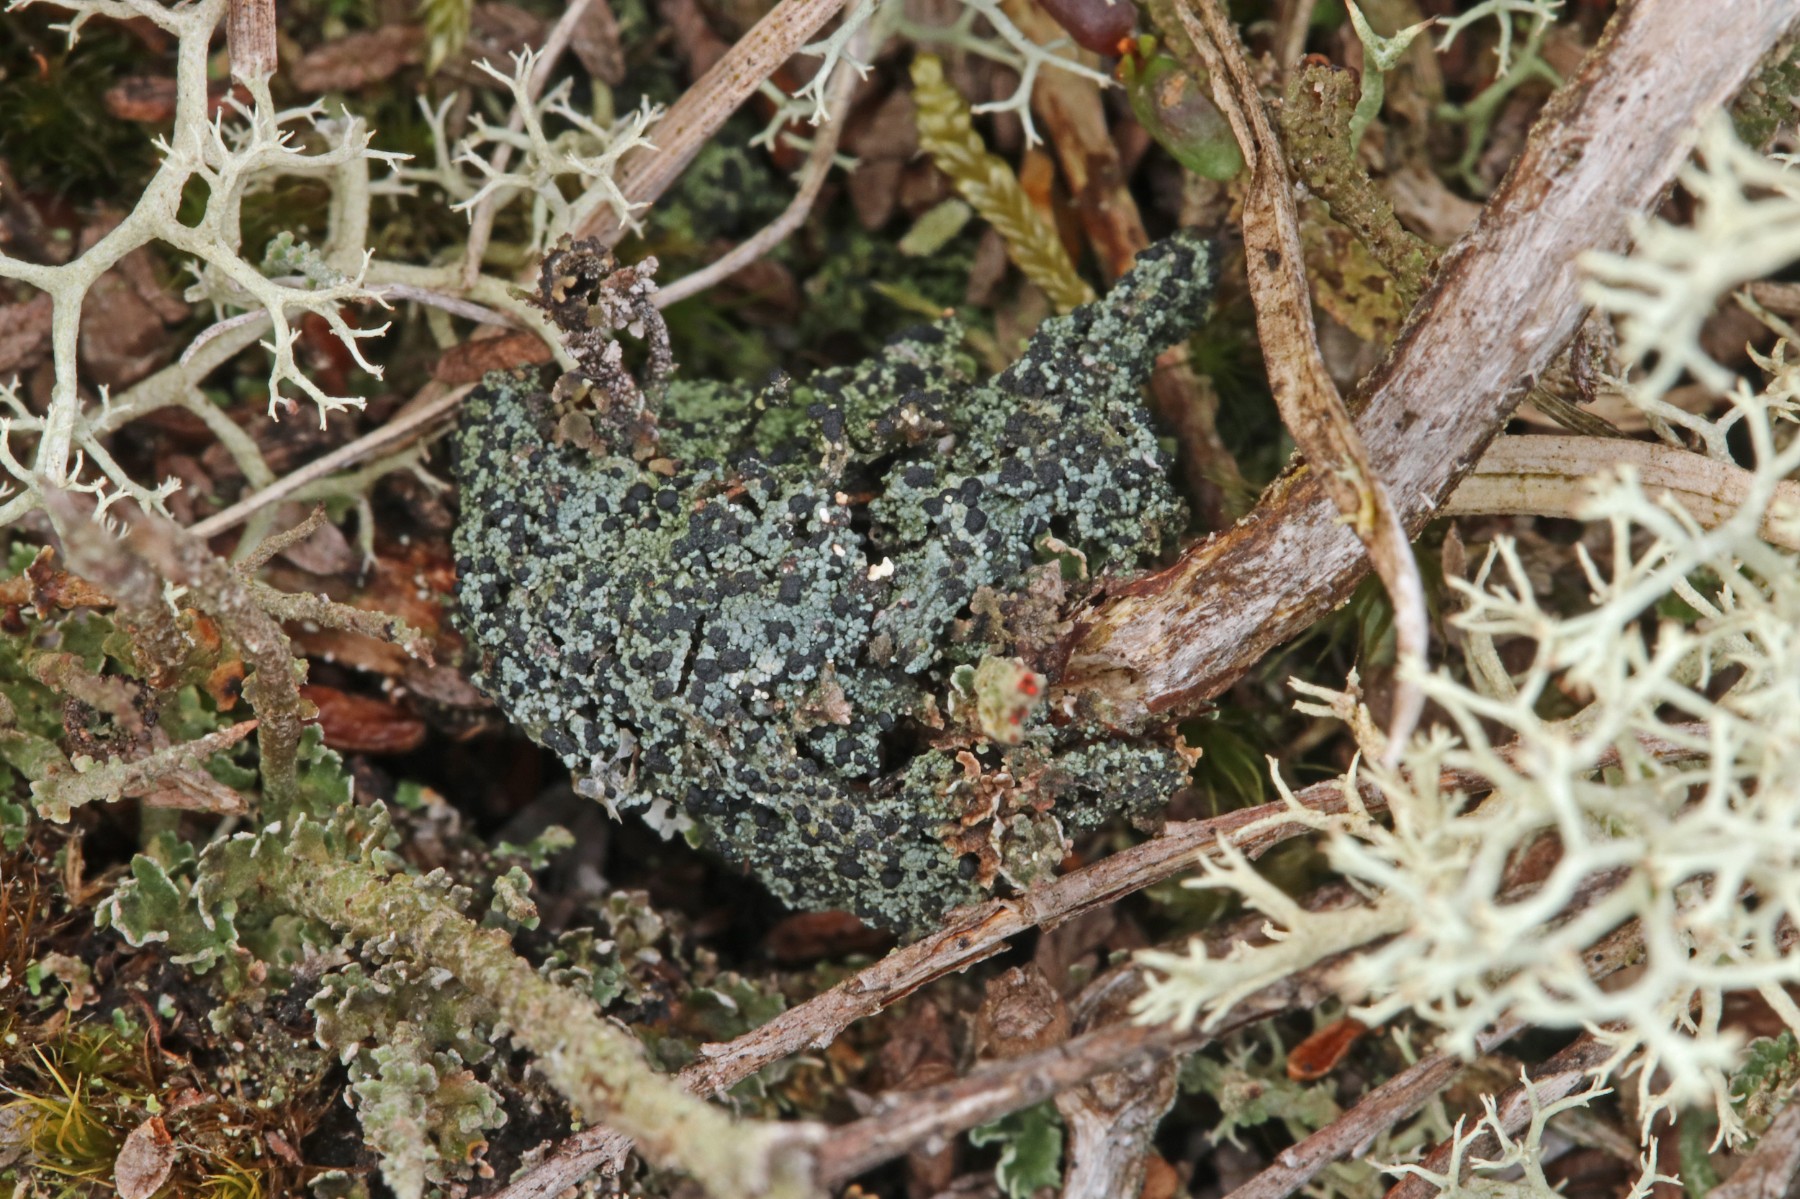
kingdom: Fungi
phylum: Ascomycota
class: Lecanoromycetes
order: Lecanorales
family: Byssolomataceae
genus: Micarea
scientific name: Micarea lignaria
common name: tørve-knaplav
